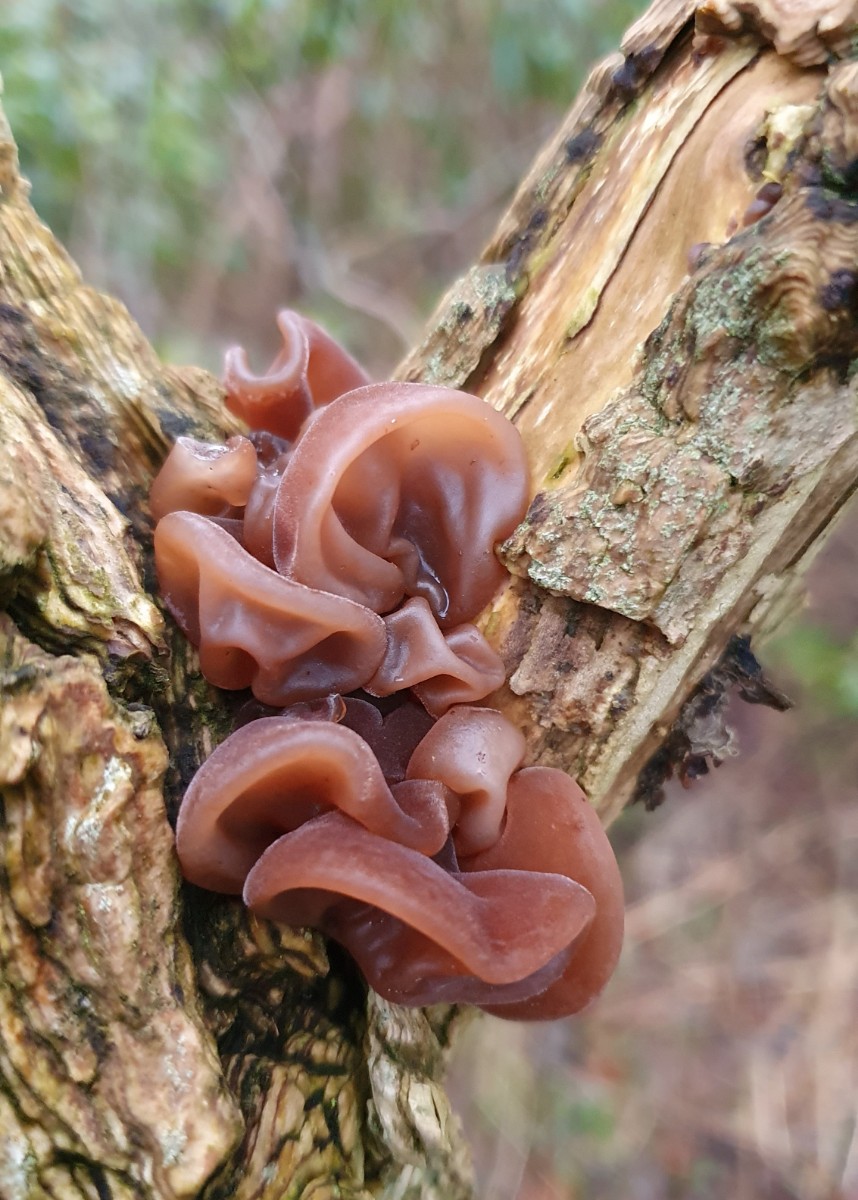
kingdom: Fungi
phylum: Basidiomycota
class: Agaricomycetes
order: Auriculariales
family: Auriculariaceae
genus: Auricularia
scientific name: Auricularia auricula-judae
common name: almindelig judasøre
